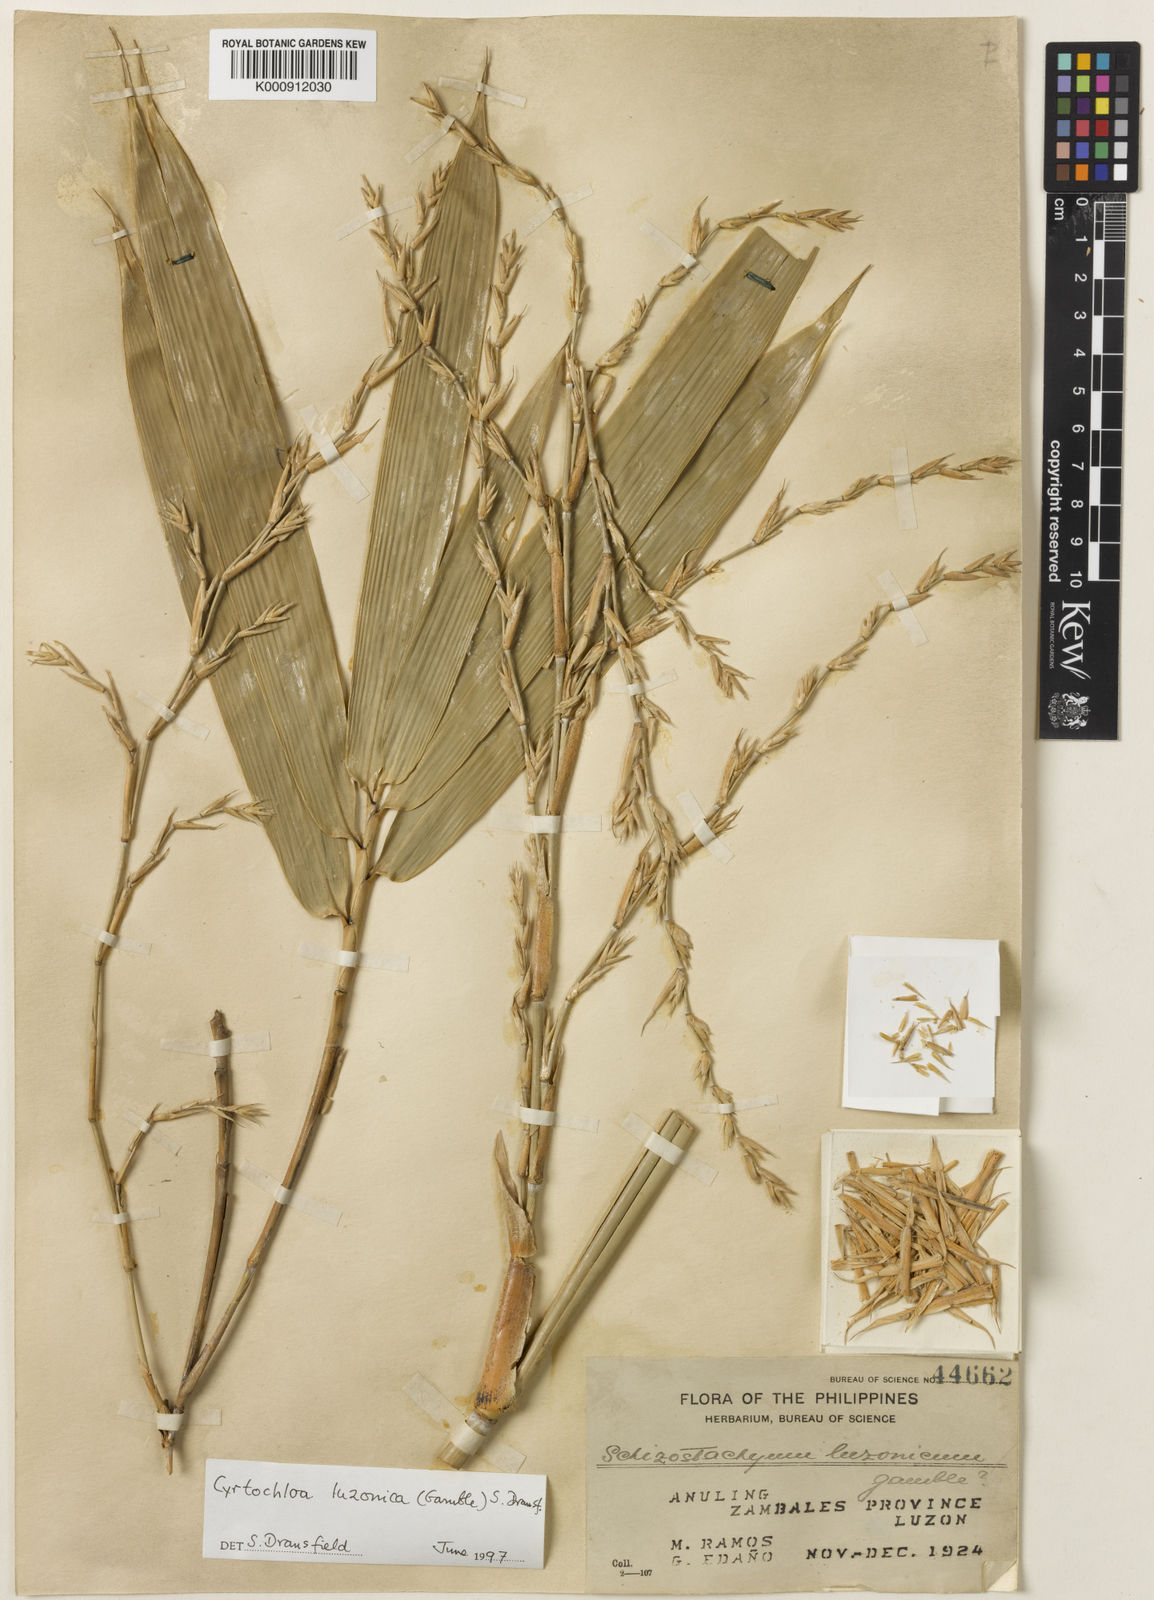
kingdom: Plantae
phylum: Tracheophyta
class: Liliopsida
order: Poales
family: Poaceae
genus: Cyrtochloa
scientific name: Cyrtochloa luzonica
